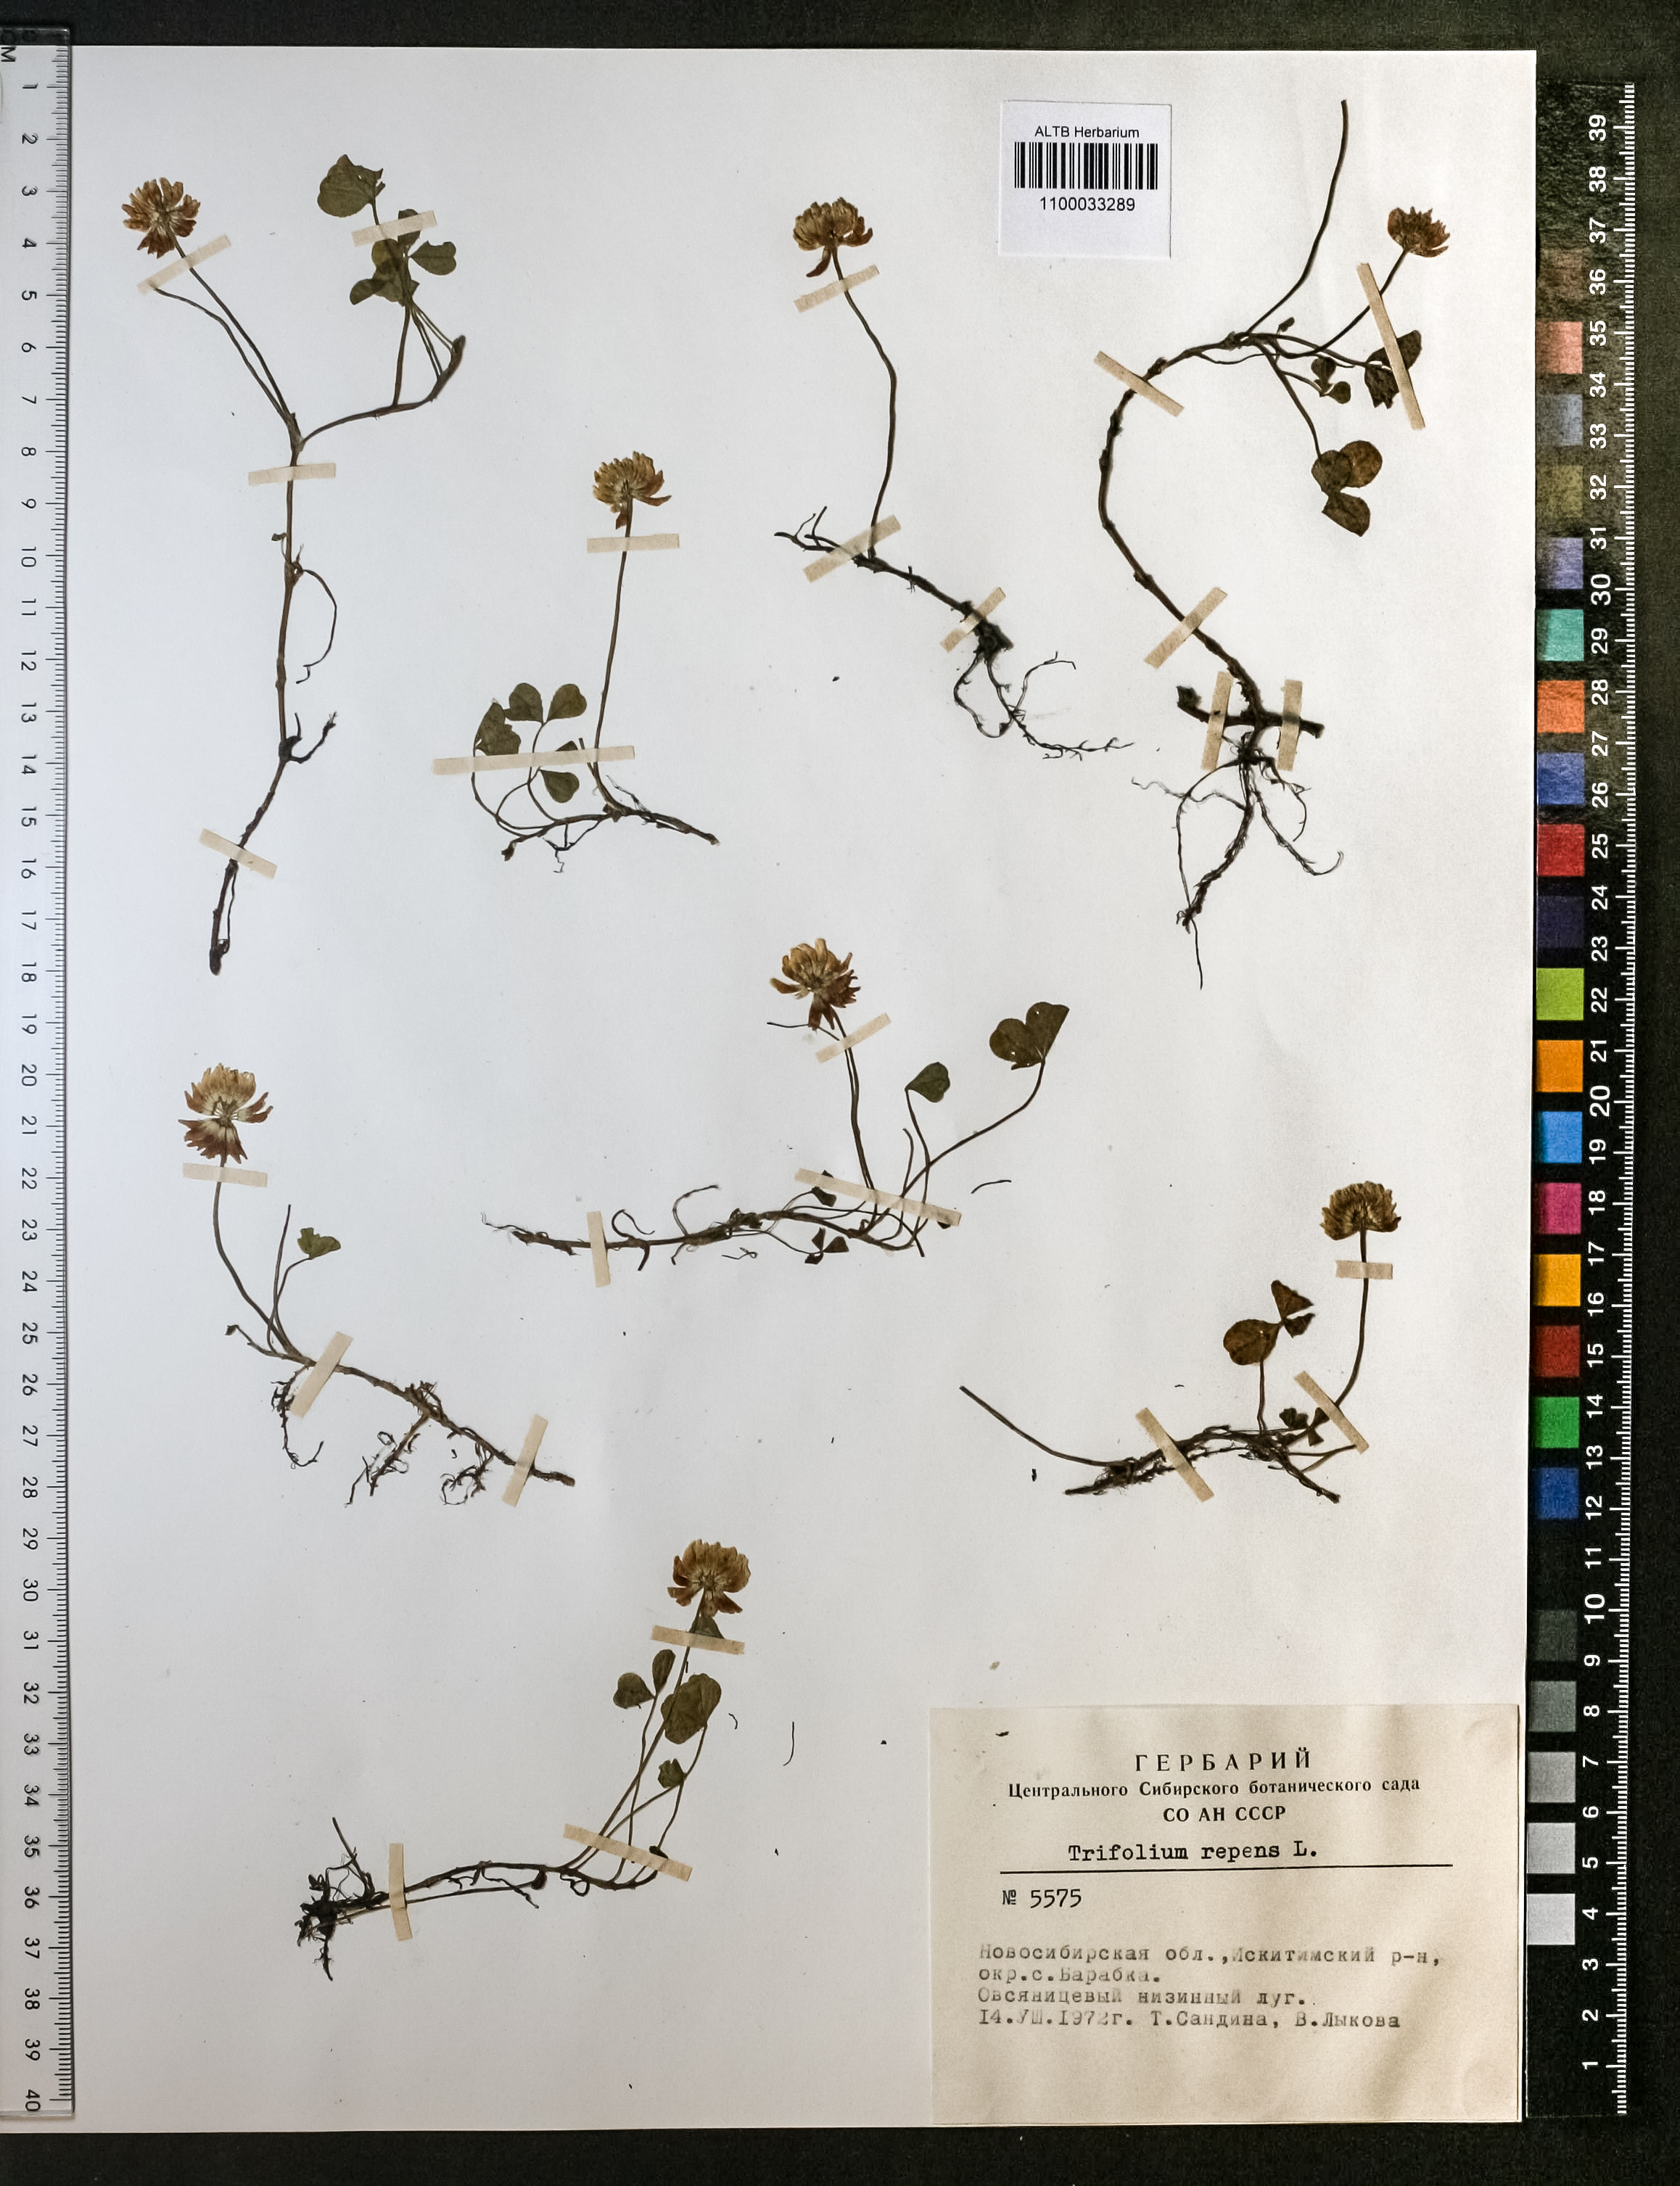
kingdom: Plantae
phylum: Tracheophyta
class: Magnoliopsida
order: Fabales
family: Fabaceae
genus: Trifolium
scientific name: Trifolium repens
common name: White clover
